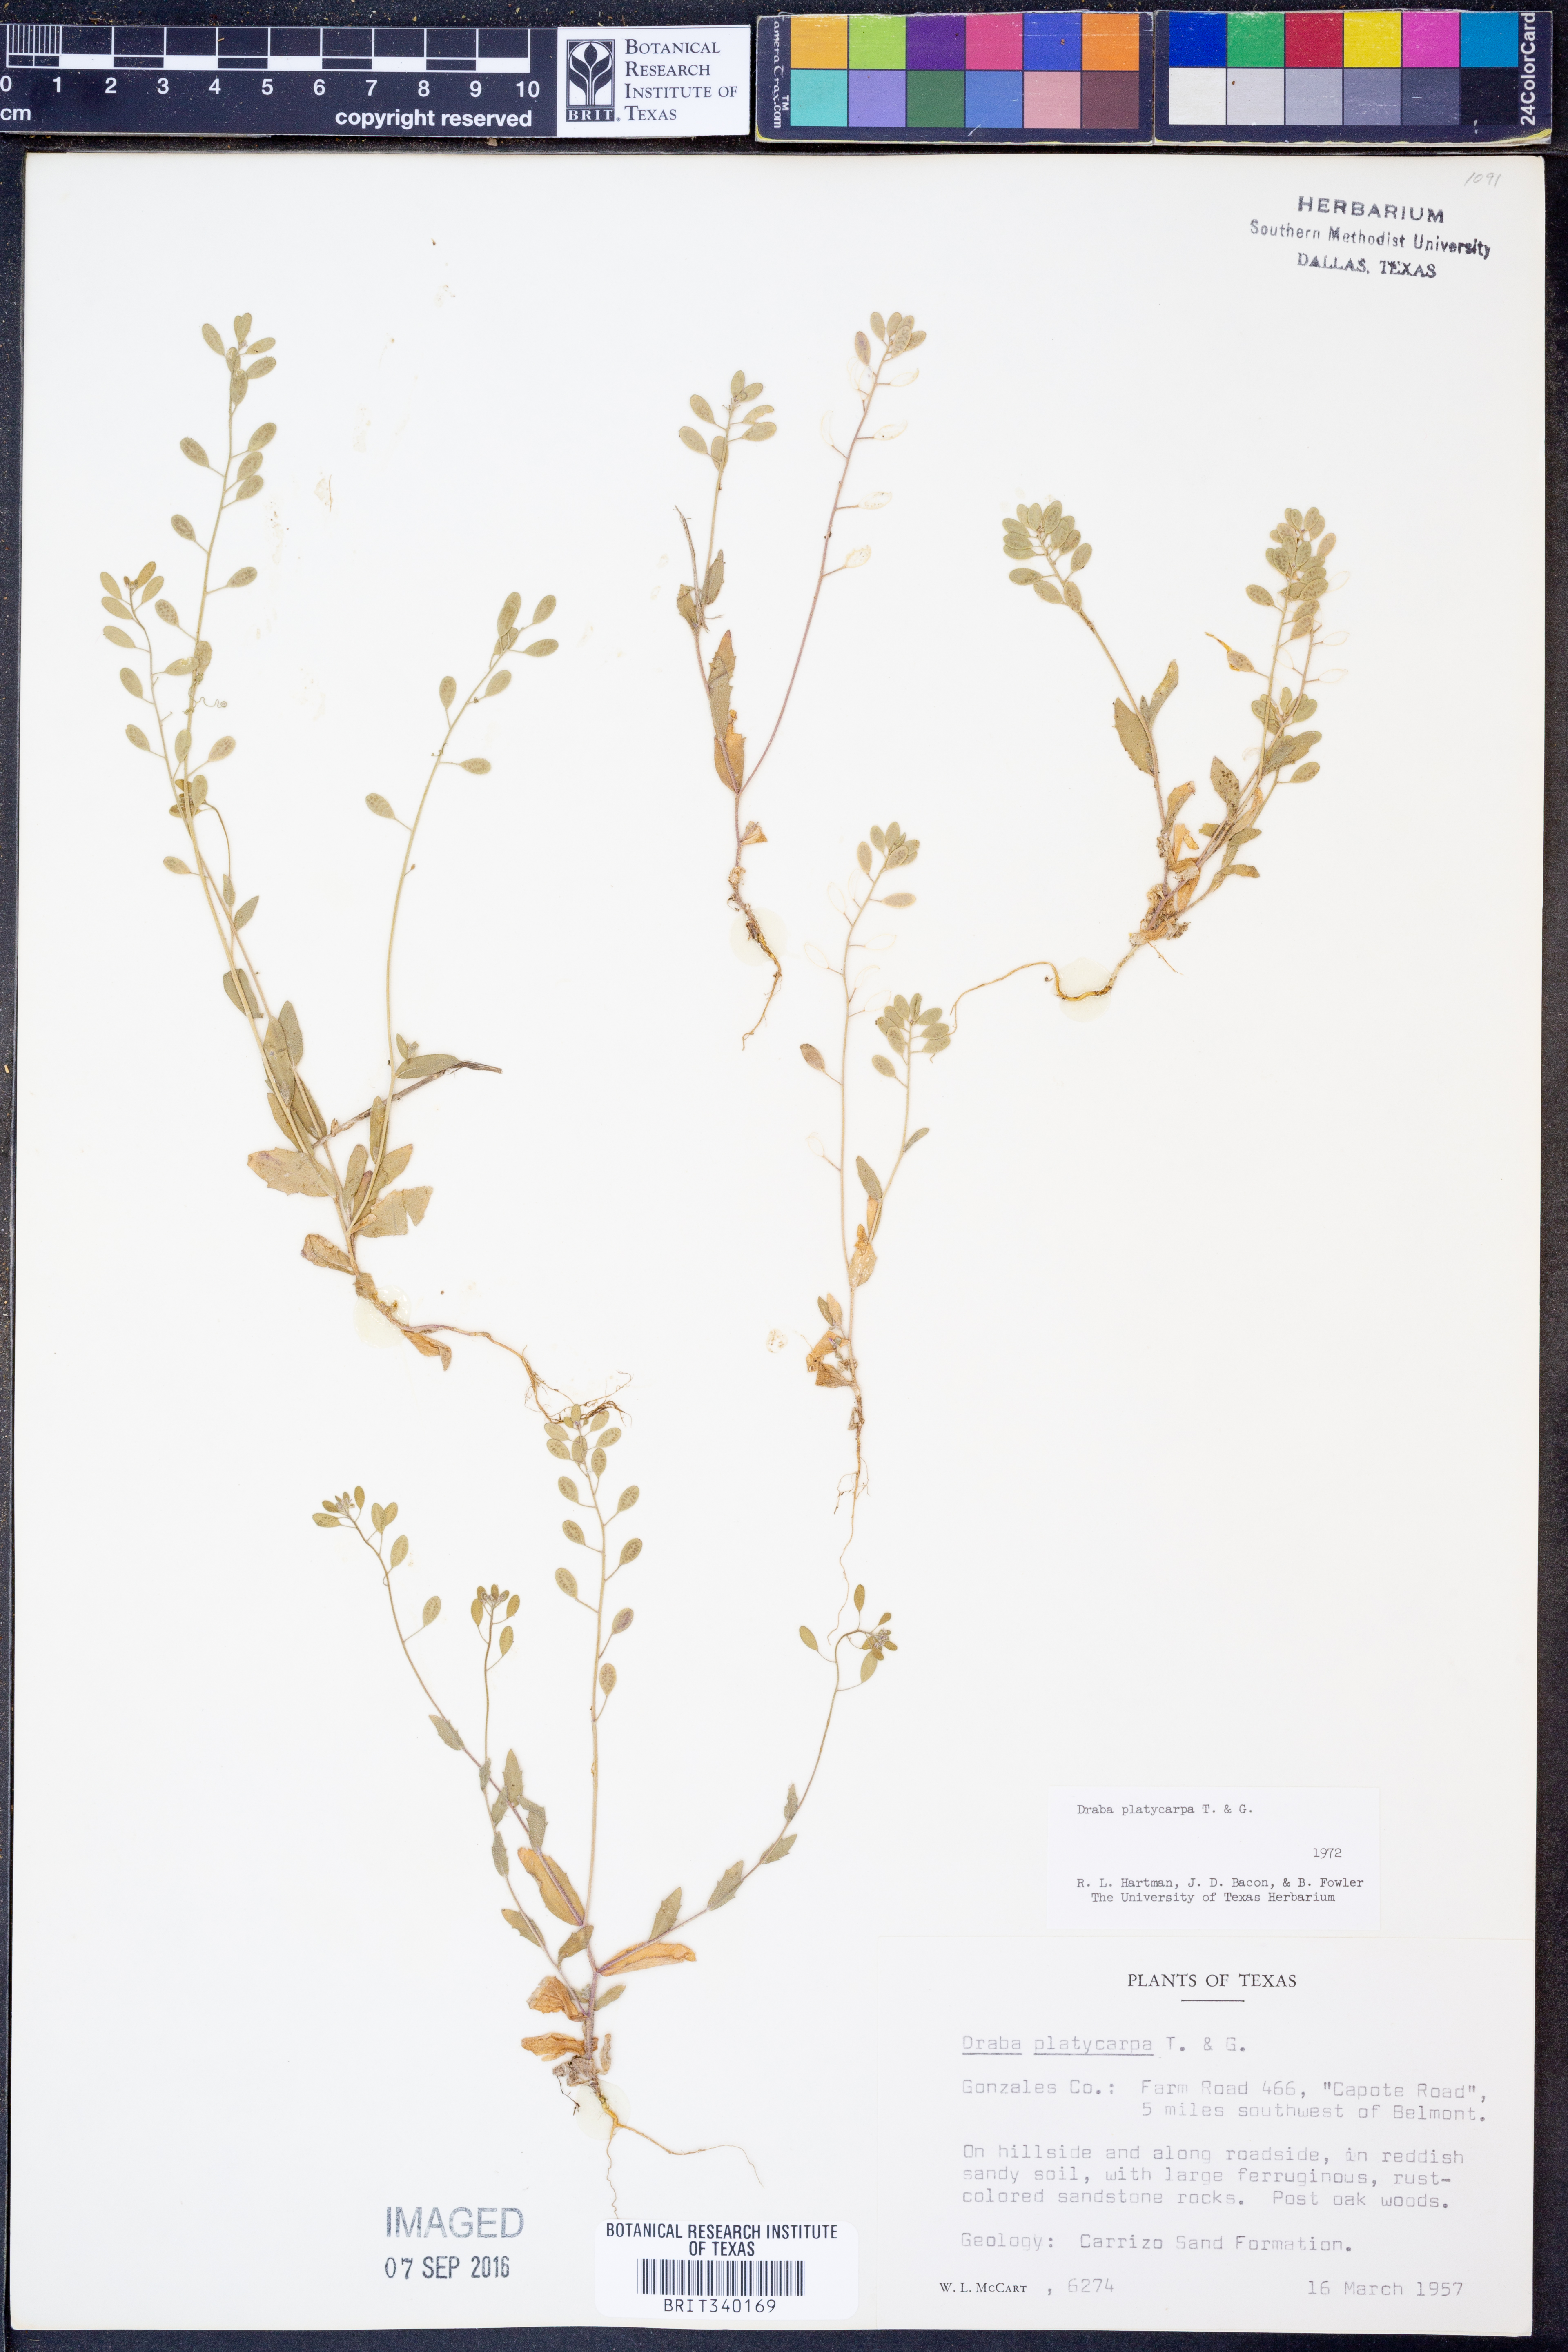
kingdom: Plantae
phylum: Tracheophyta
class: Magnoliopsida
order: Brassicales
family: Brassicaceae
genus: Tomostima
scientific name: Tomostima platycarpa
